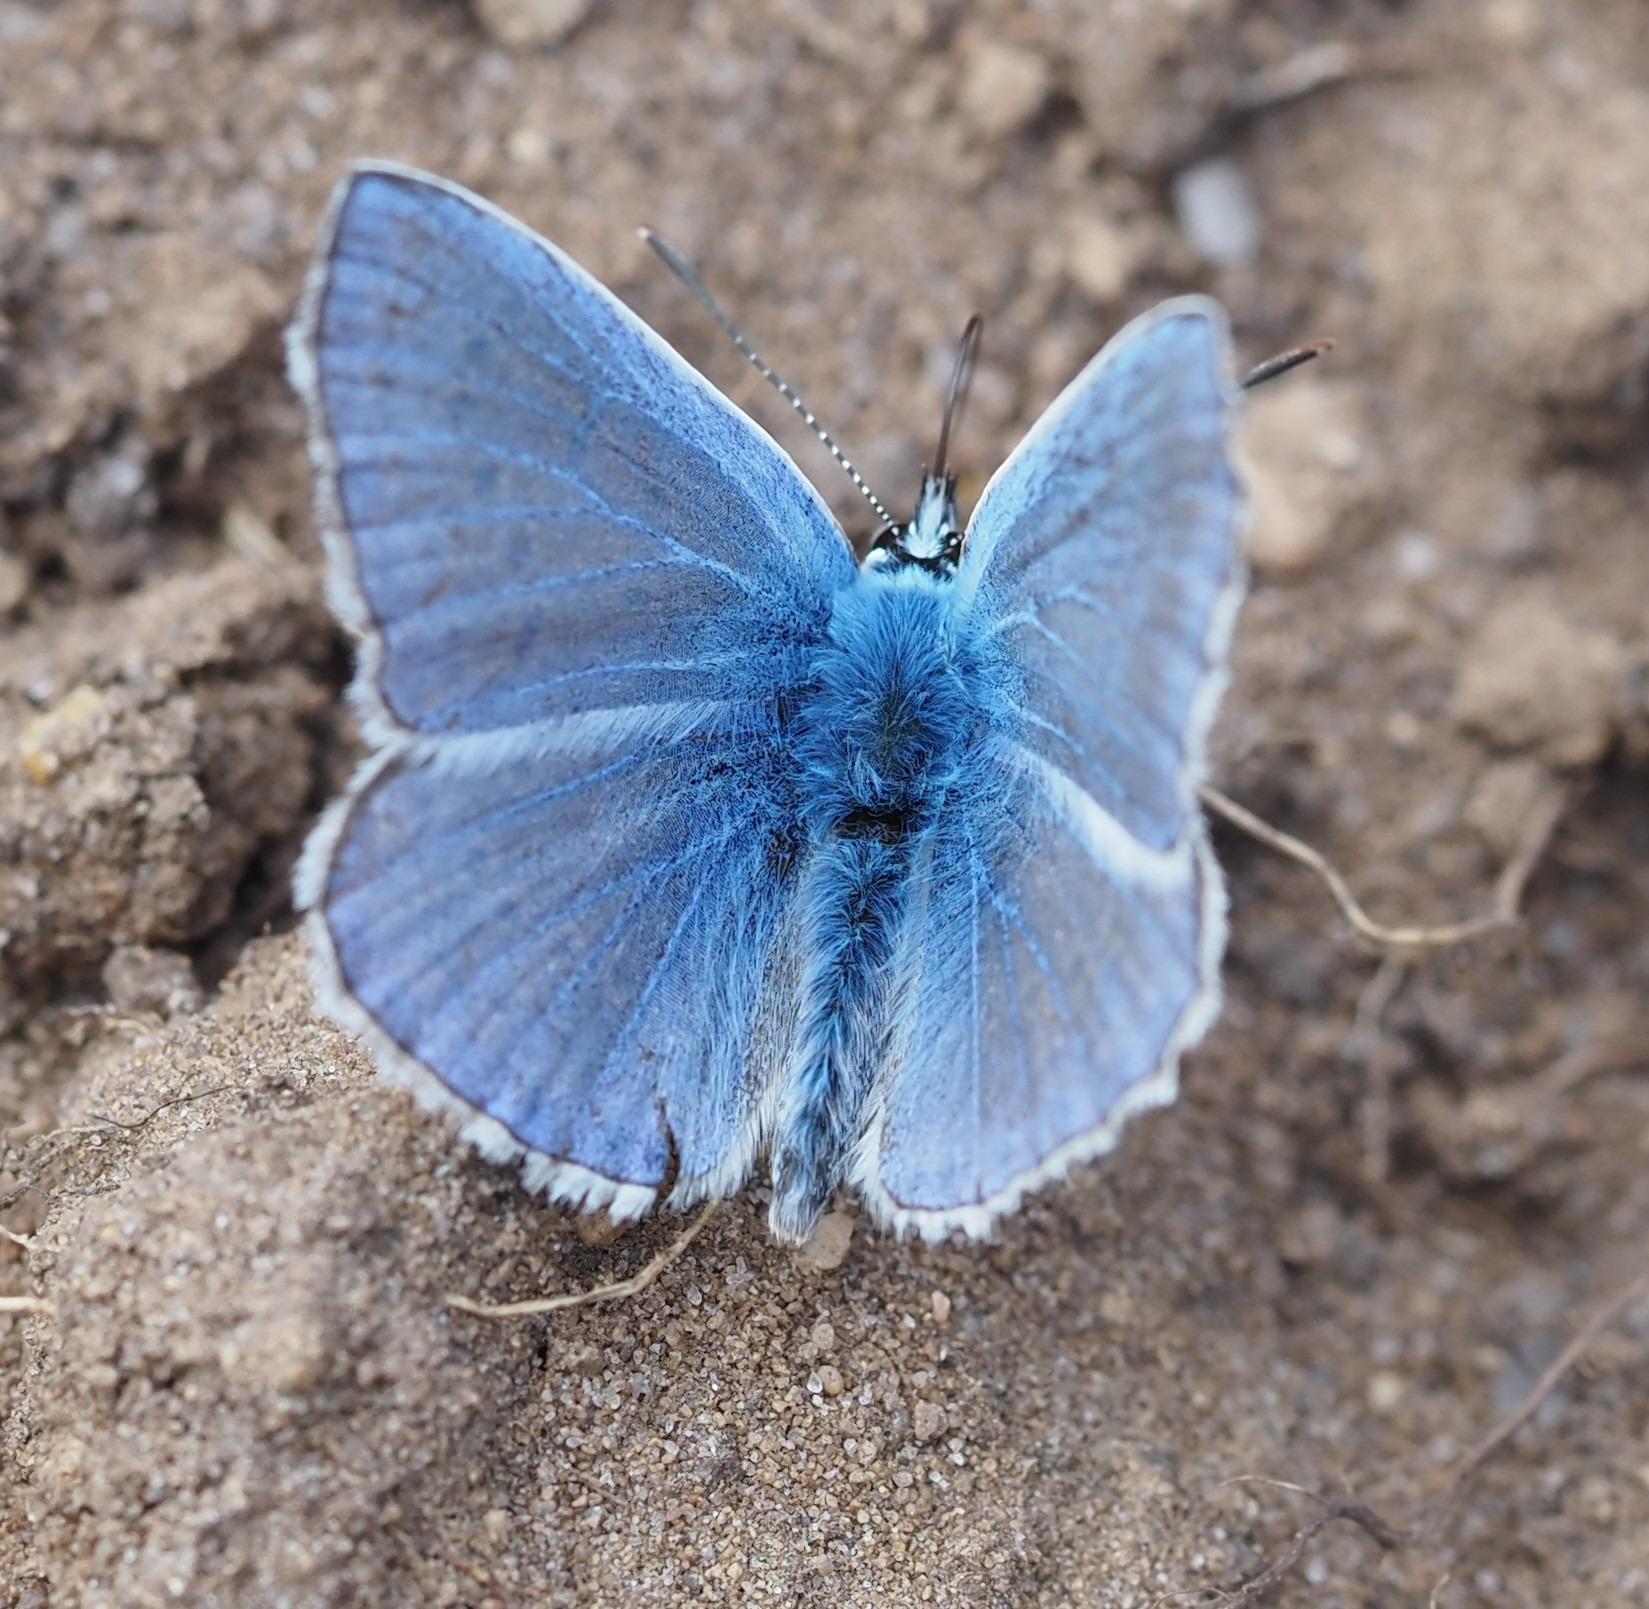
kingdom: Animalia
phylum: Arthropoda
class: Insecta
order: Lepidoptera
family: Lycaenidae
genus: Polyommatus
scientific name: Polyommatus icarus
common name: Almindelig blåfugl
